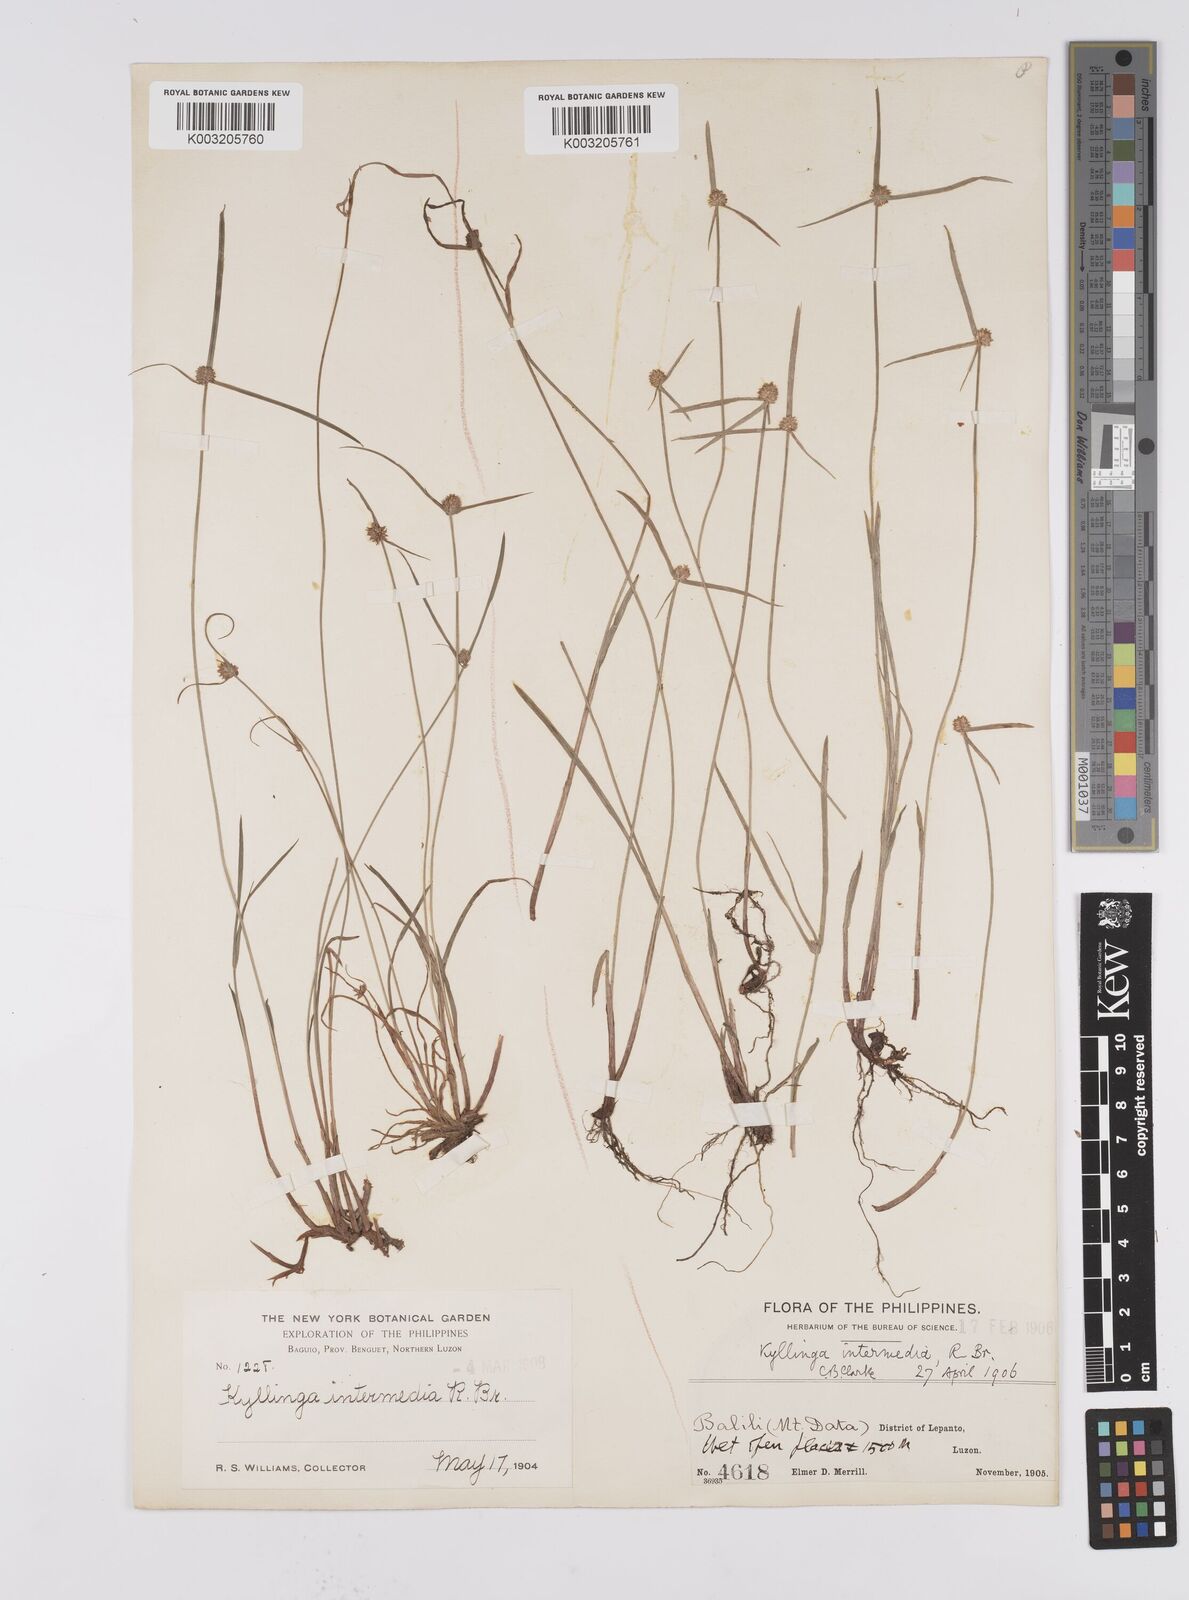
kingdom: Plantae
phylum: Tracheophyta
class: Liliopsida
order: Poales
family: Cyperaceae
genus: Cyperus
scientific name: Cyperus brevifolius
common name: Globe kyllinga
